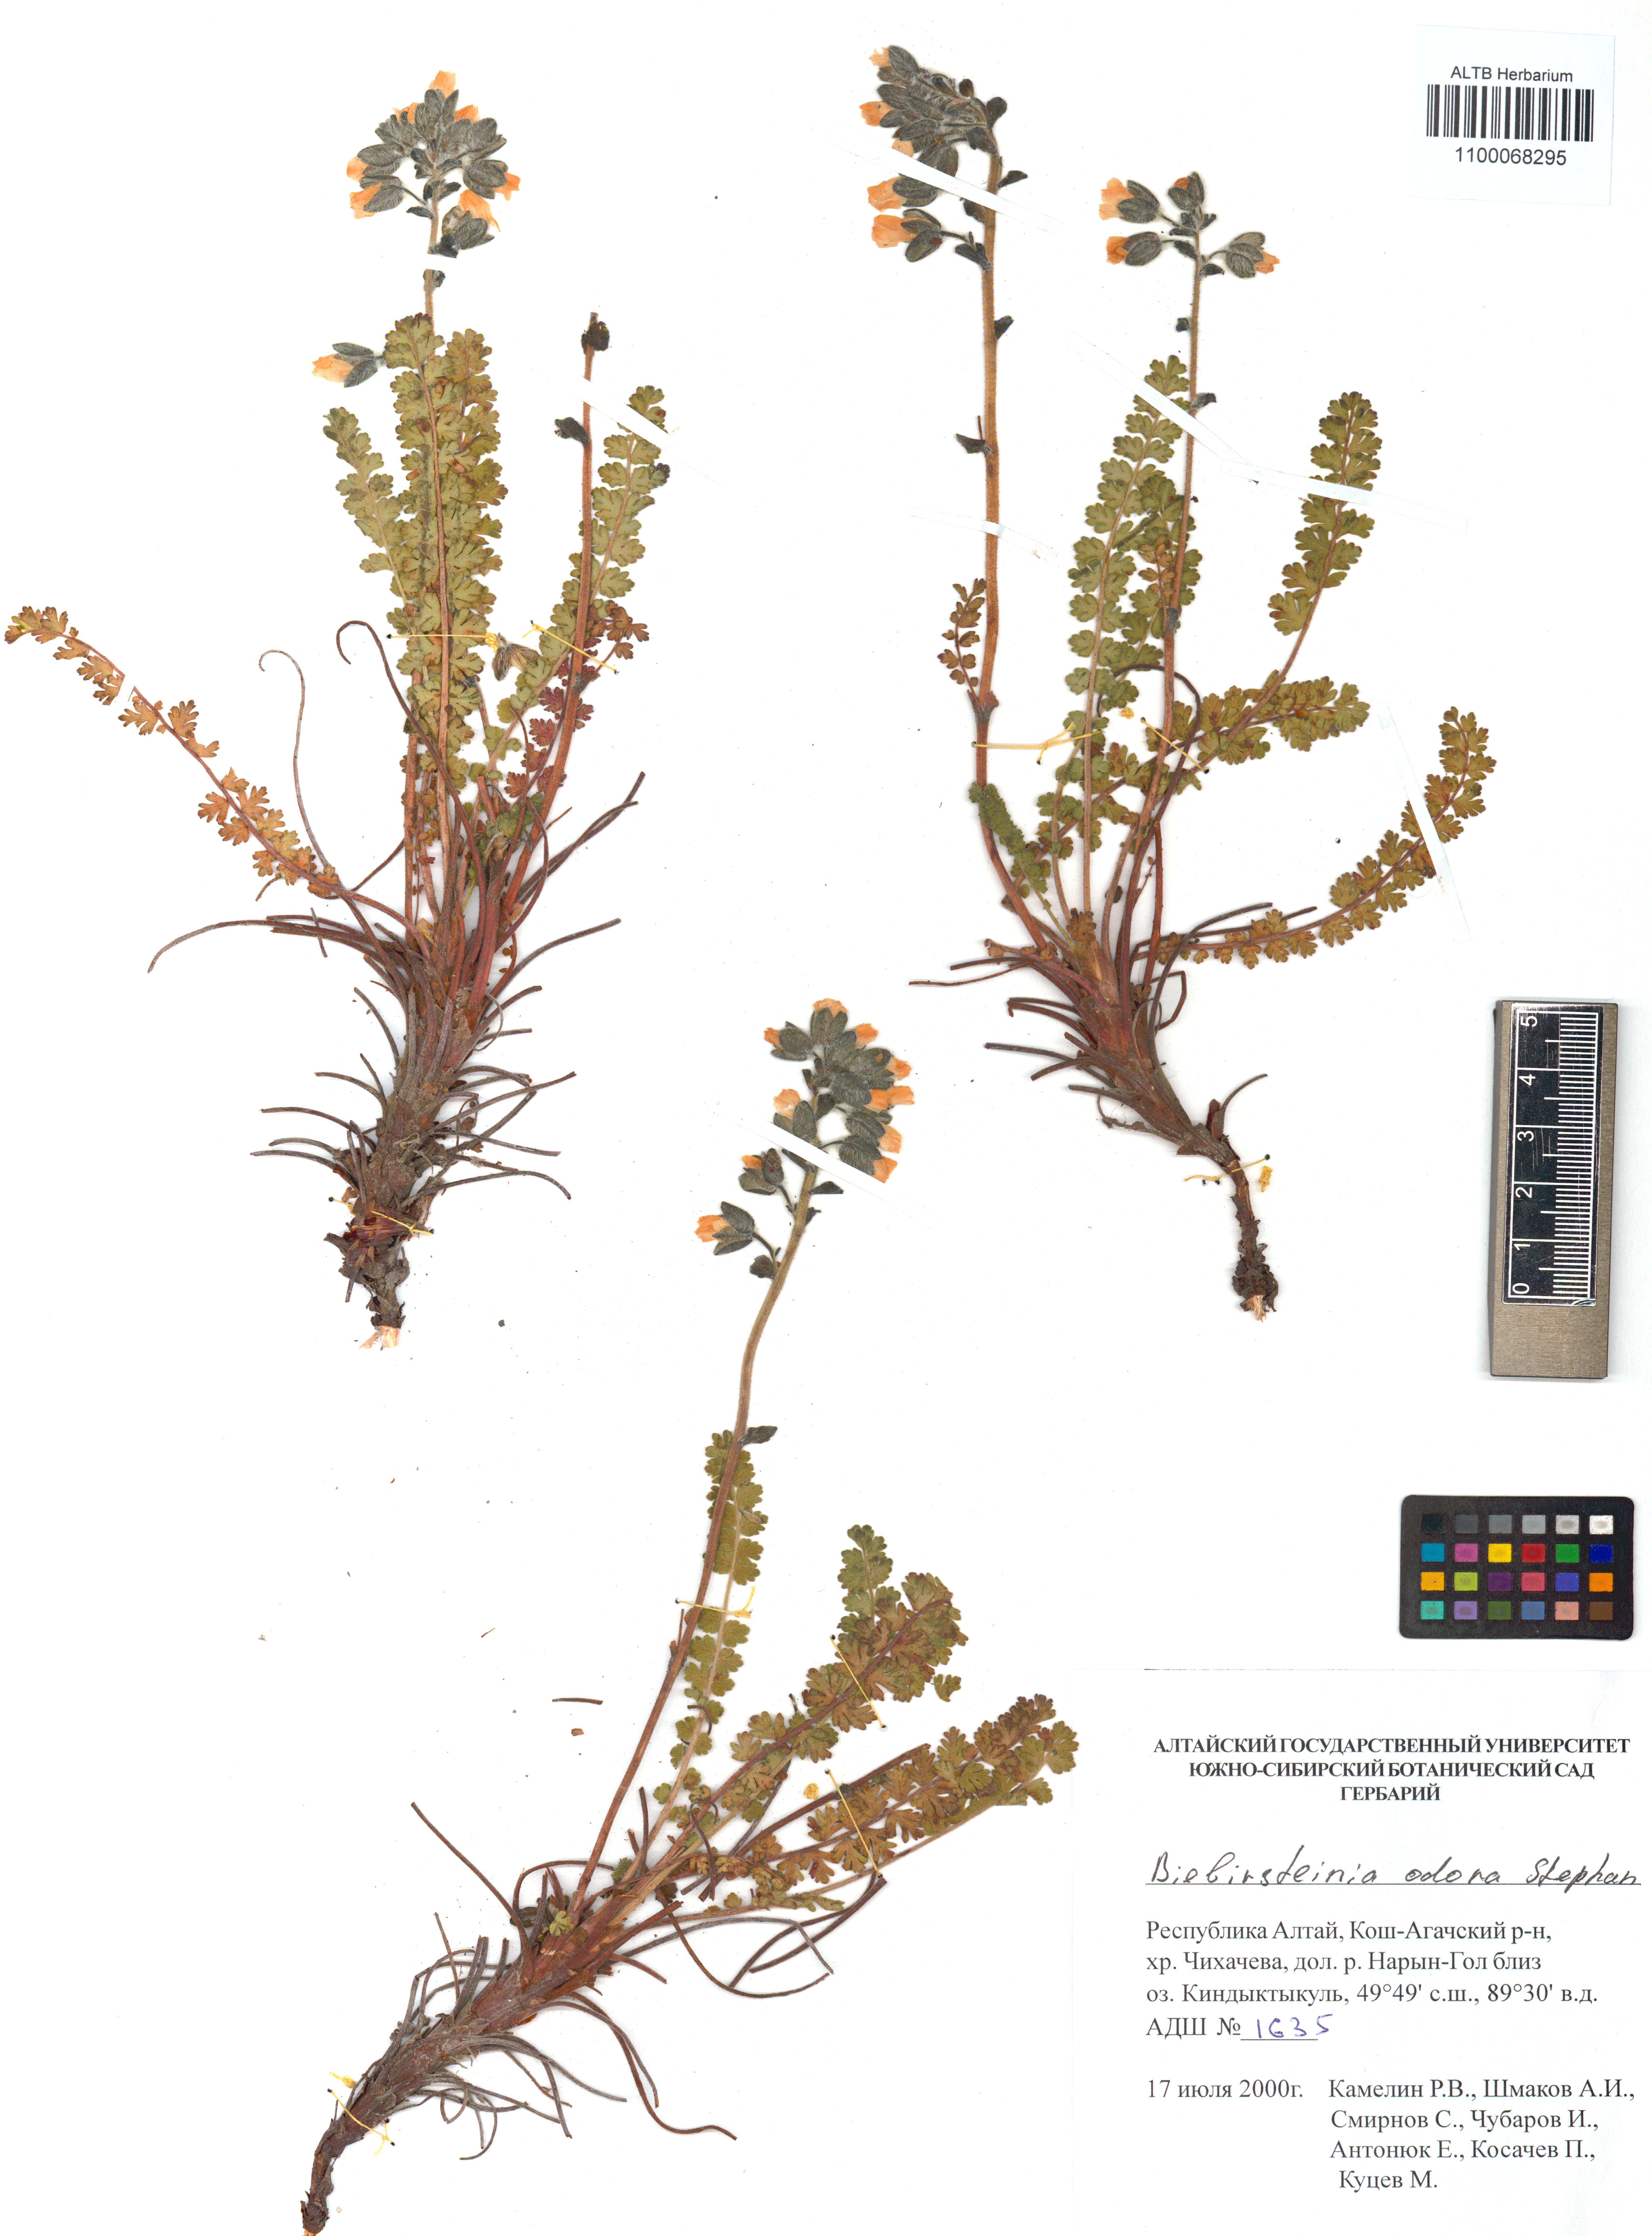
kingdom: Plantae
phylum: Tracheophyta
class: Magnoliopsida
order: Sapindales
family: Biebersteiniaceae
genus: Biebersteinia
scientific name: Biebersteinia odora
